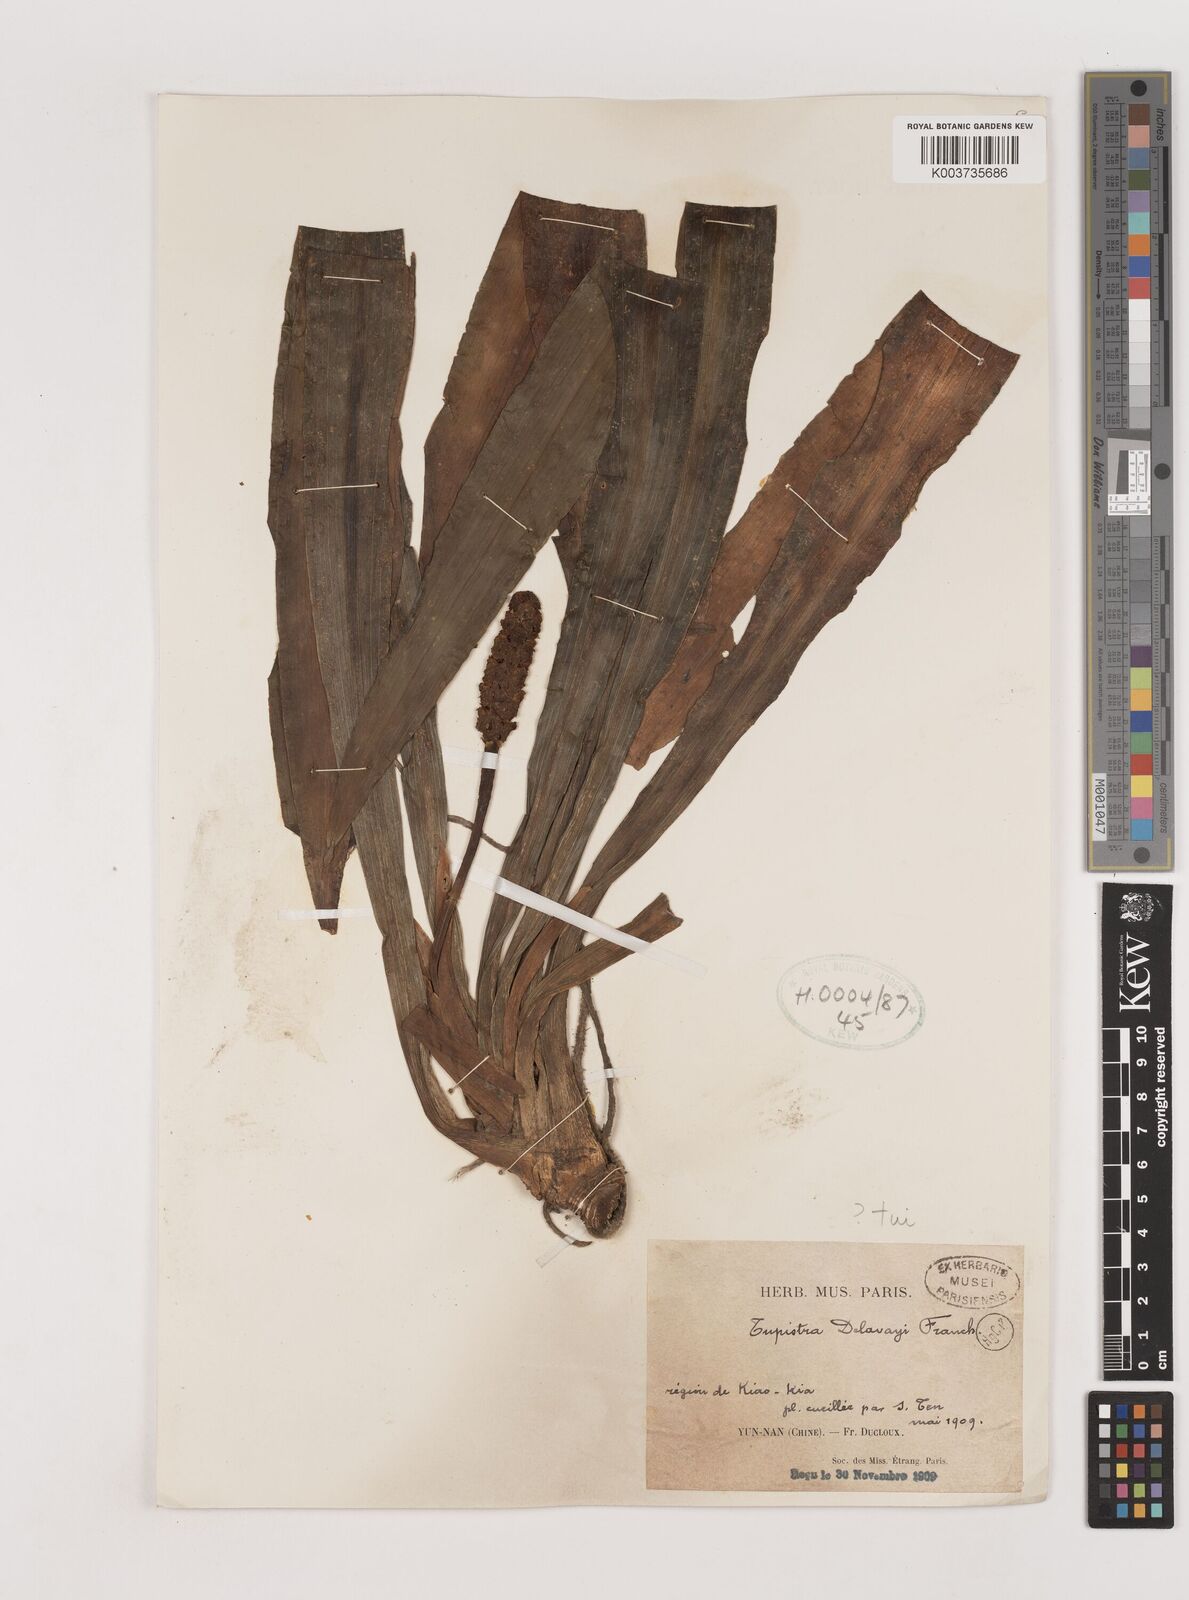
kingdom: Plantae
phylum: Tracheophyta
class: Liliopsida
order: Asparagales
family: Asparagaceae
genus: Rohdea
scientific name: Rohdea delavayi
